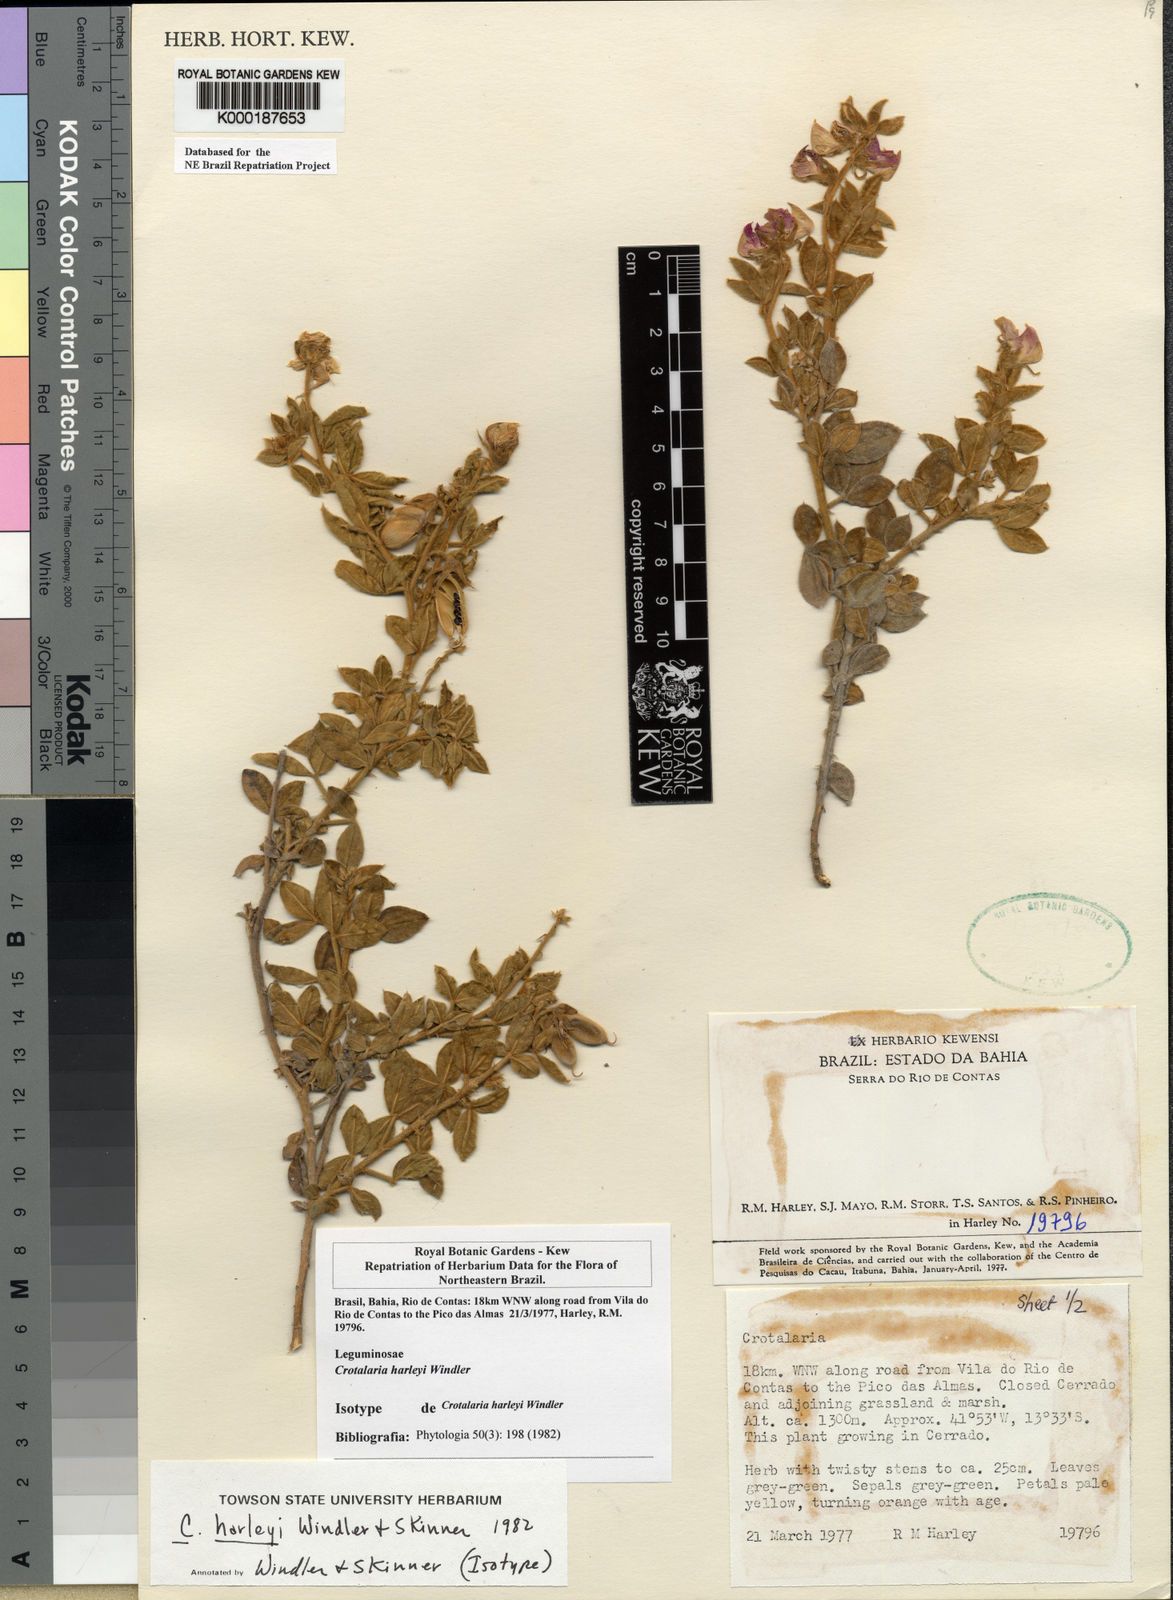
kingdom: Plantae
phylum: Tracheophyta
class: Magnoliopsida
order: Fabales
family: Fabaceae
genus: Crotalaria
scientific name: Crotalaria harleyi
